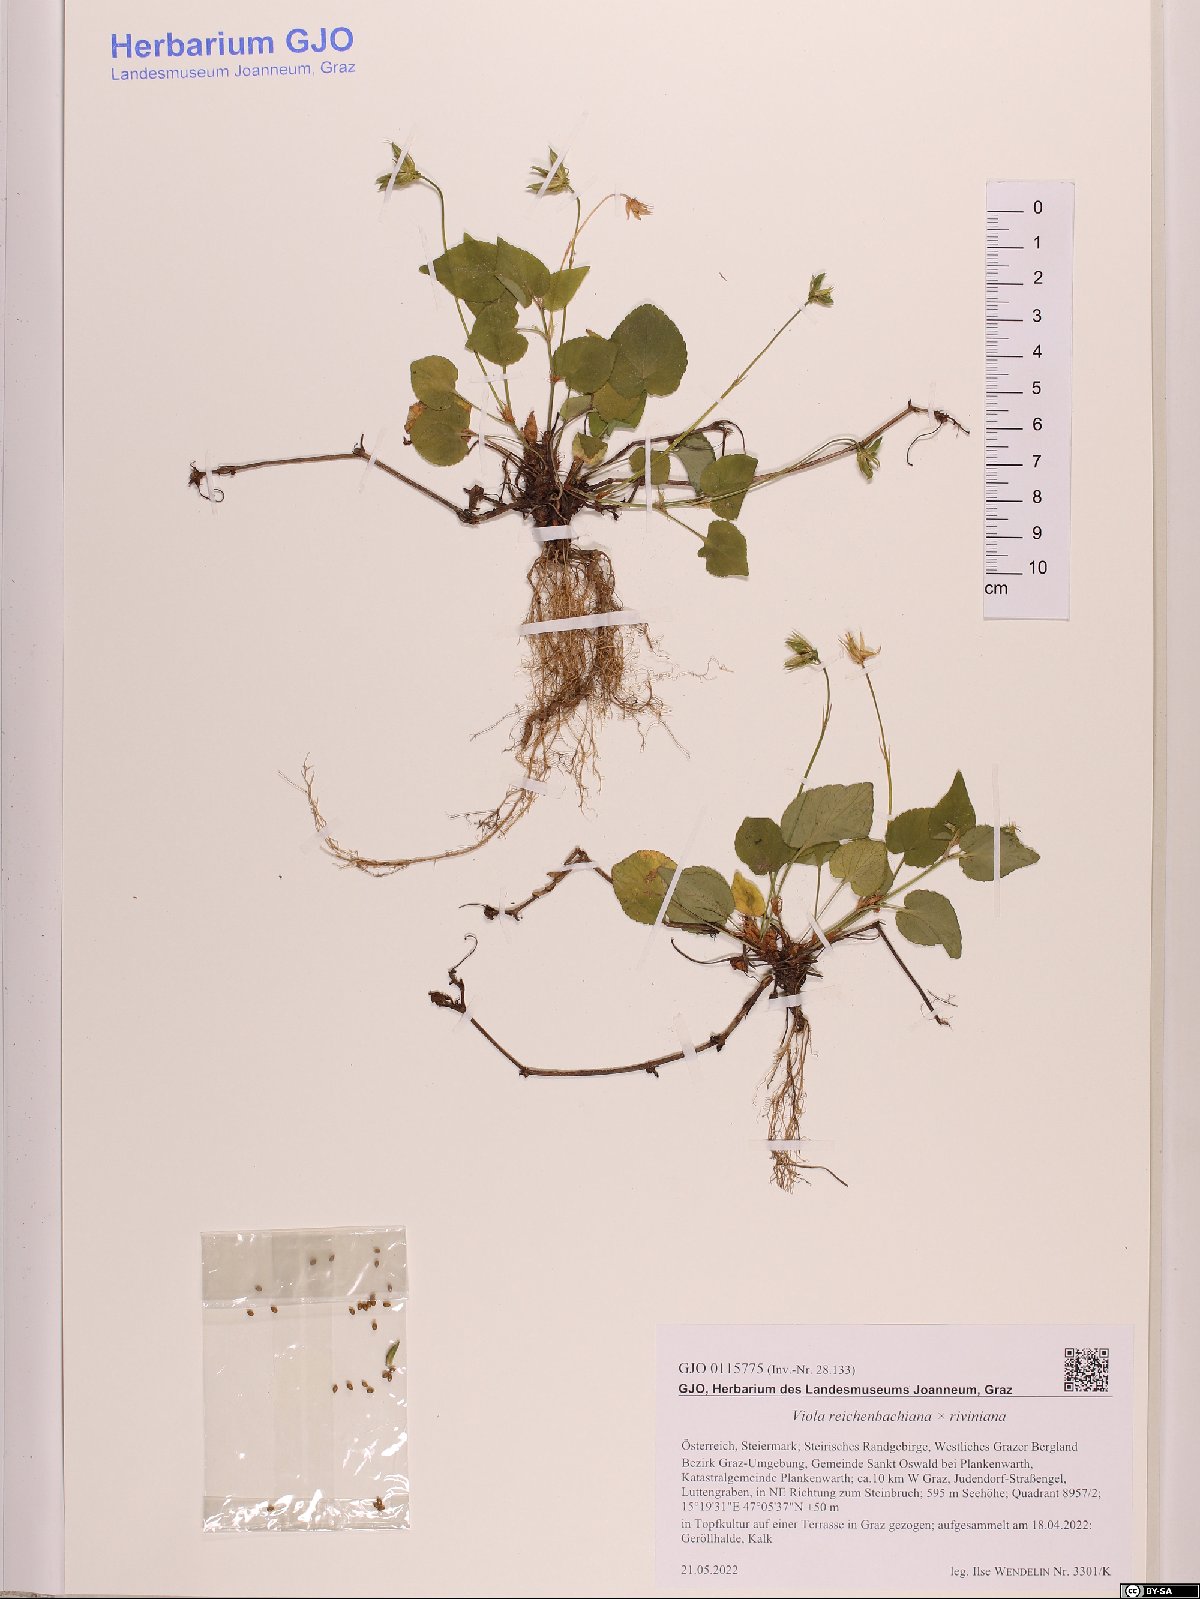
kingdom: Plantae
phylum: Tracheophyta
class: Magnoliopsida
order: Malpighiales
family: Violaceae
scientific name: Violaceae
